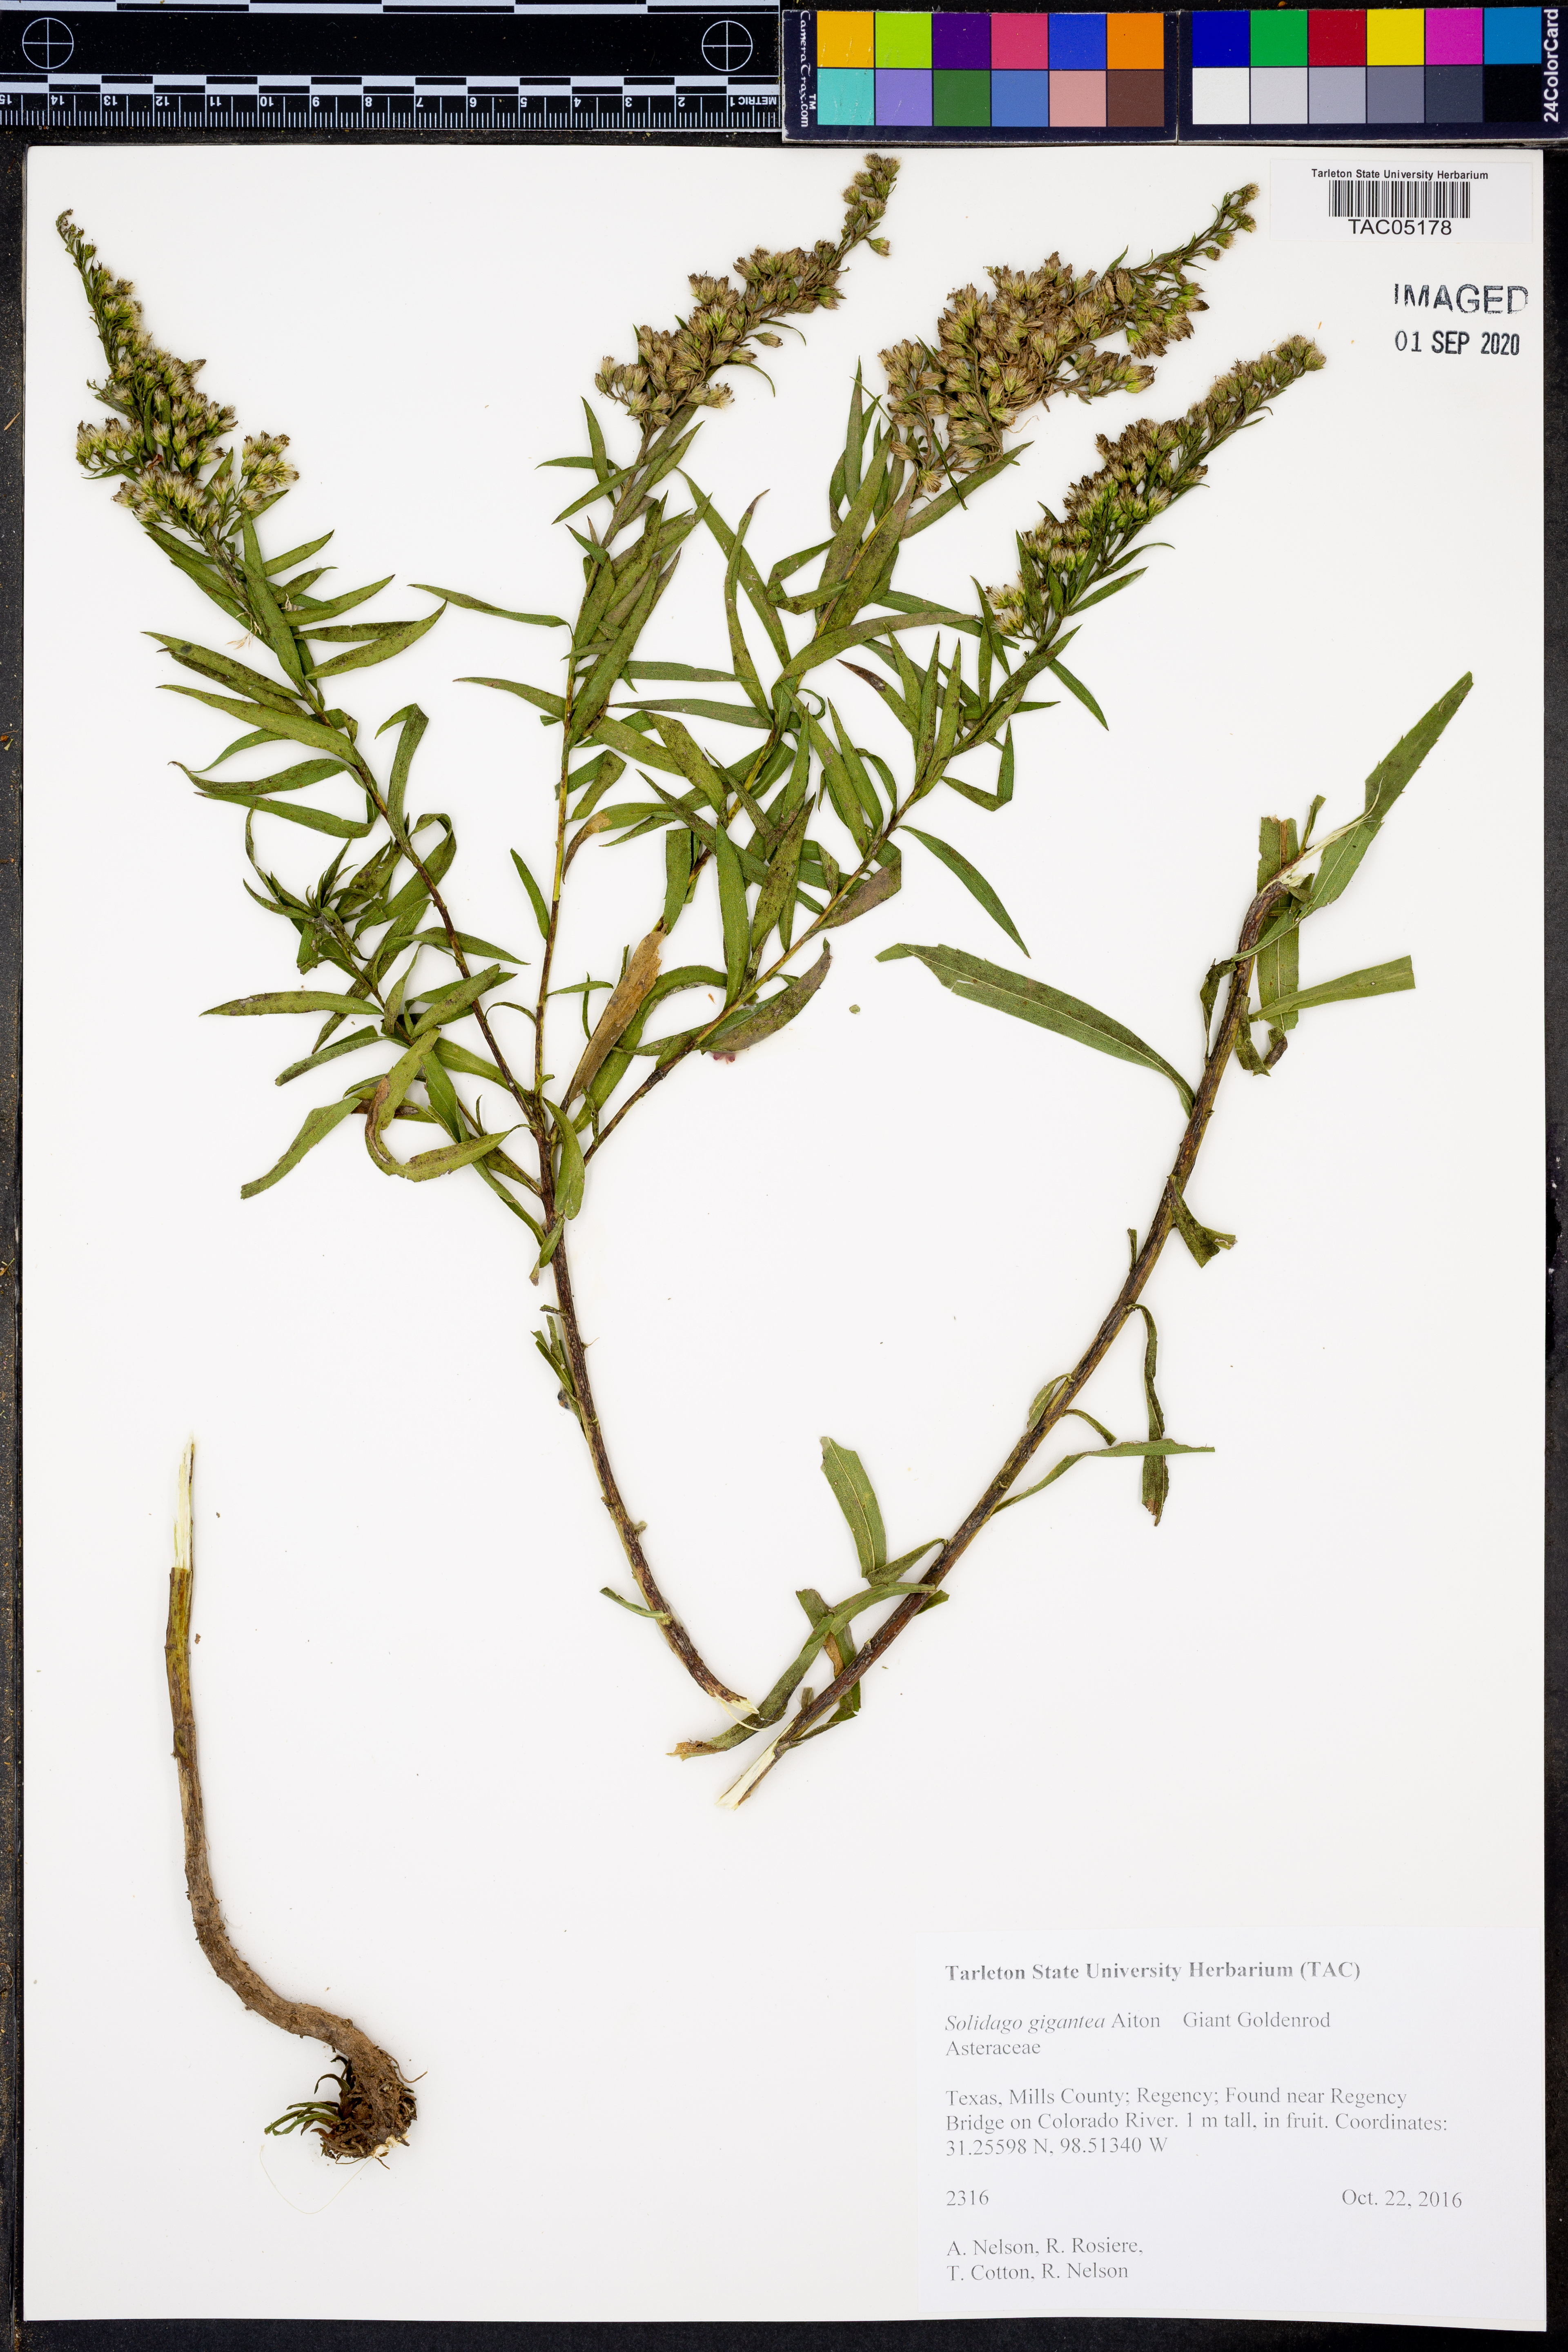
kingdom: Plantae
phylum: Tracheophyta
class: Magnoliopsida
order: Asterales
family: Asteraceae
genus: Solidago
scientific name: Solidago gigantea
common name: Giant goldenrod
